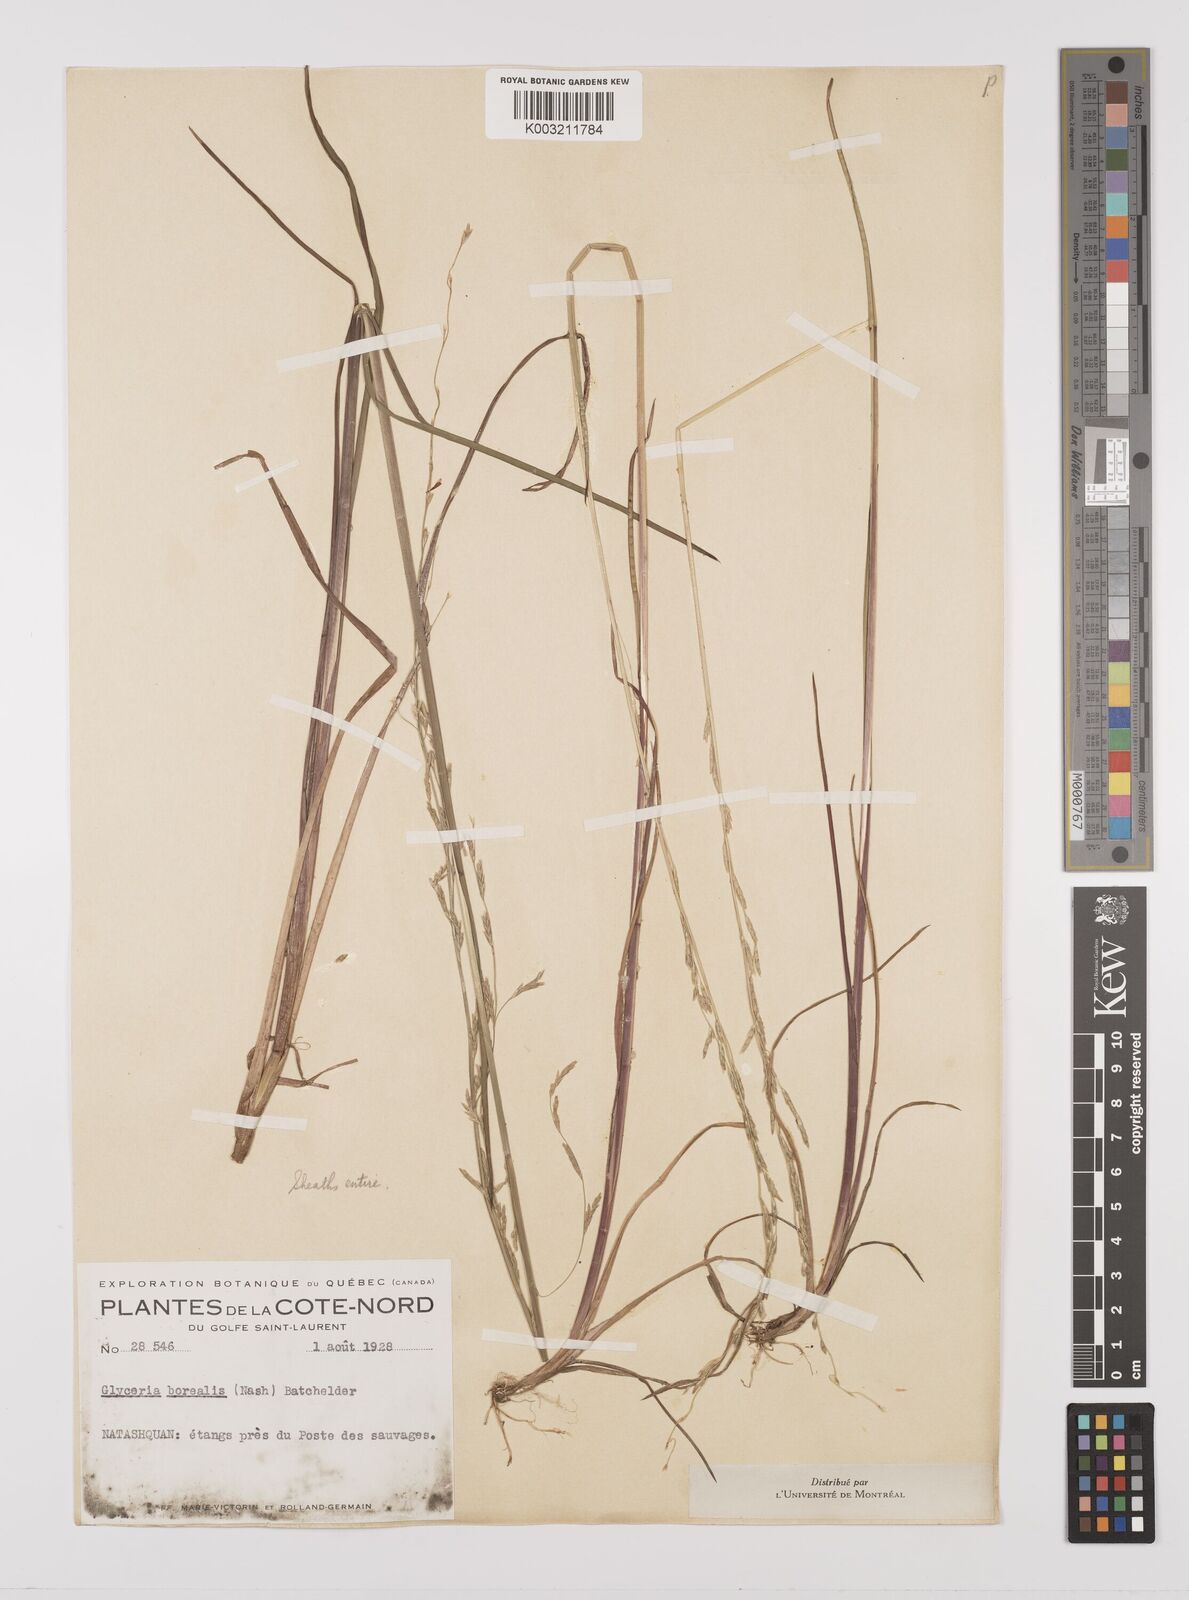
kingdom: Plantae
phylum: Tracheophyta
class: Liliopsida
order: Poales
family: Poaceae
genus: Glyceria
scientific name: Glyceria borealis
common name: Boreal glyceria
